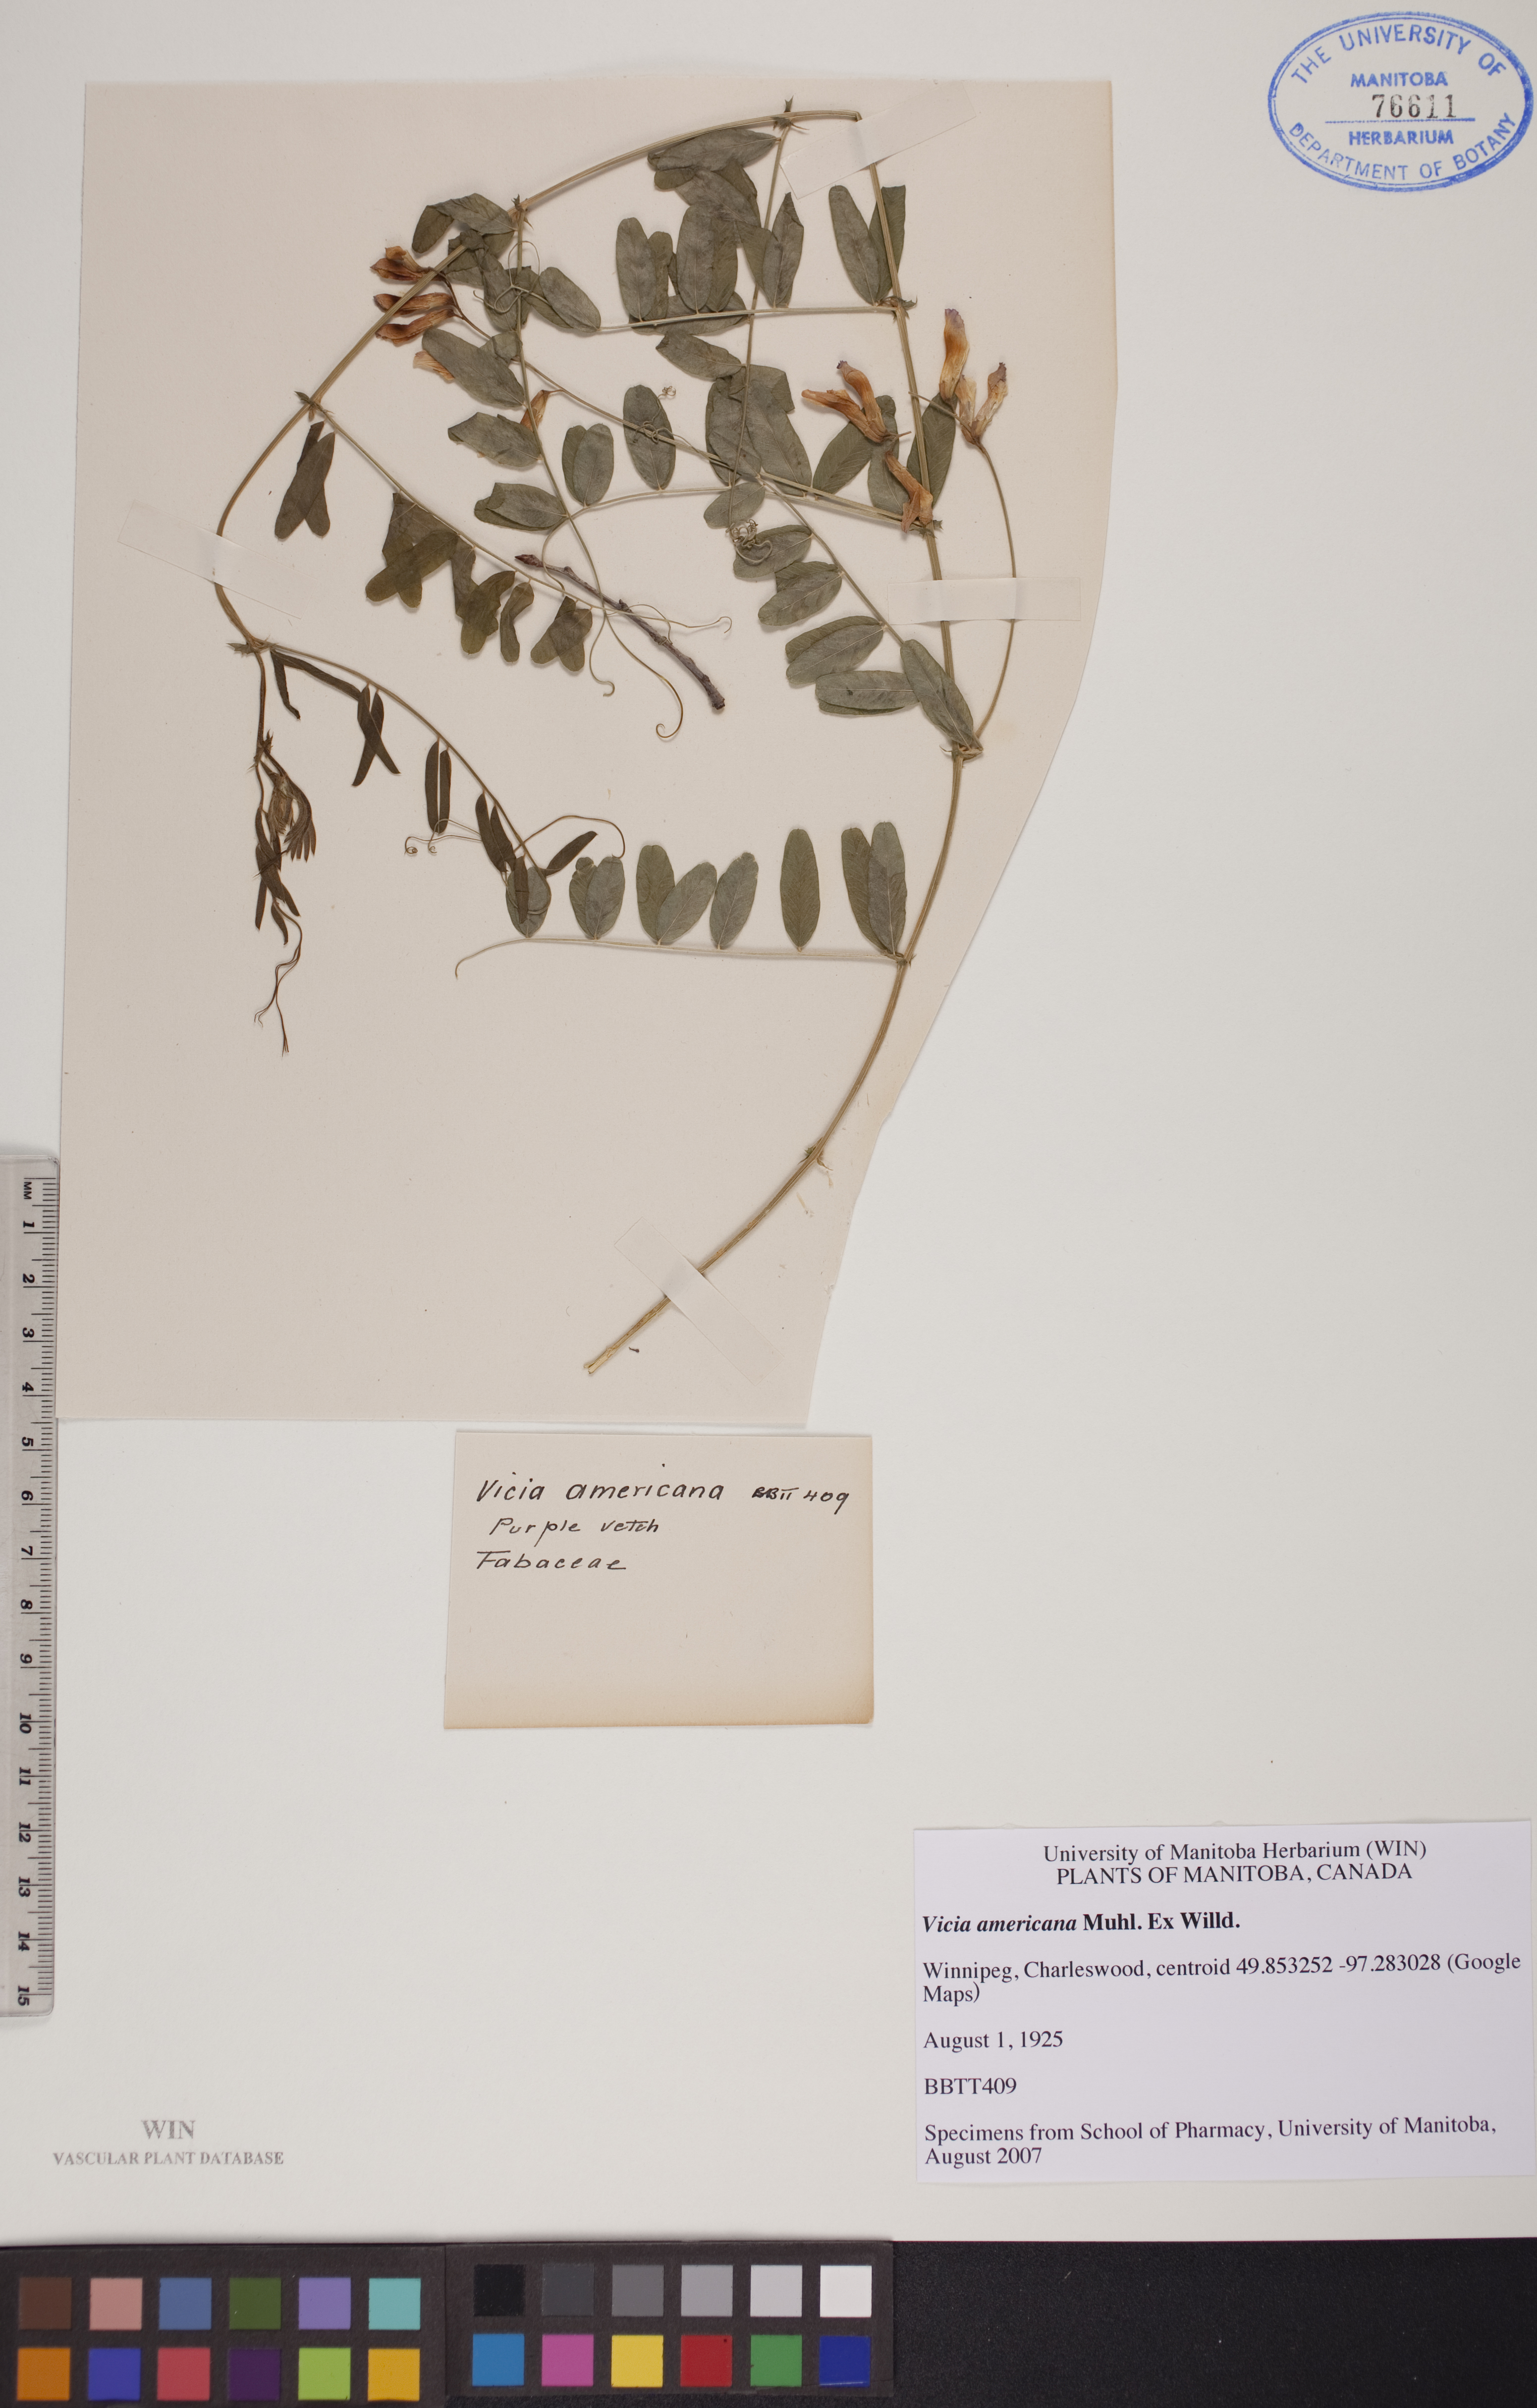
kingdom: Plantae
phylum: Tracheophyta
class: Magnoliopsida
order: Fabales
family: Fabaceae
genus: Vicia
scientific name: Vicia americana
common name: American vetch
